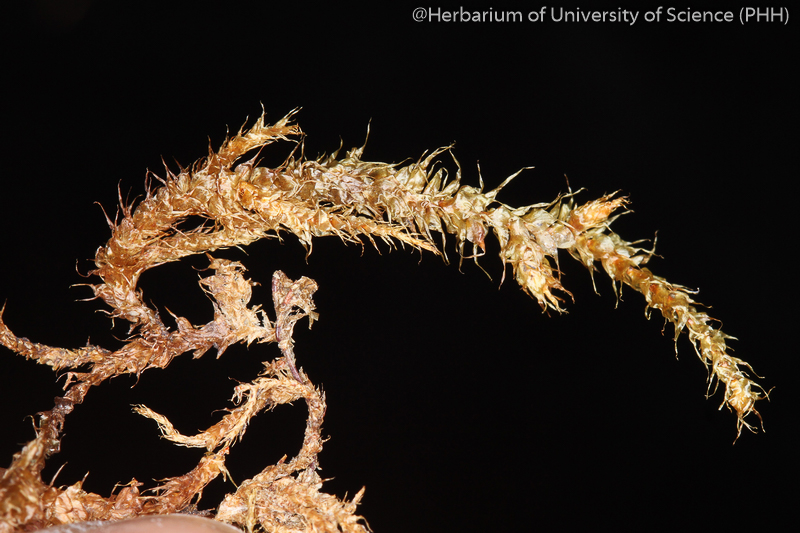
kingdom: Plantae
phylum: Bryophyta
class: Bryopsida
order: Hypnales
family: Hylocomiaceae
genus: Meteoriella
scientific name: Meteoriella soluta
